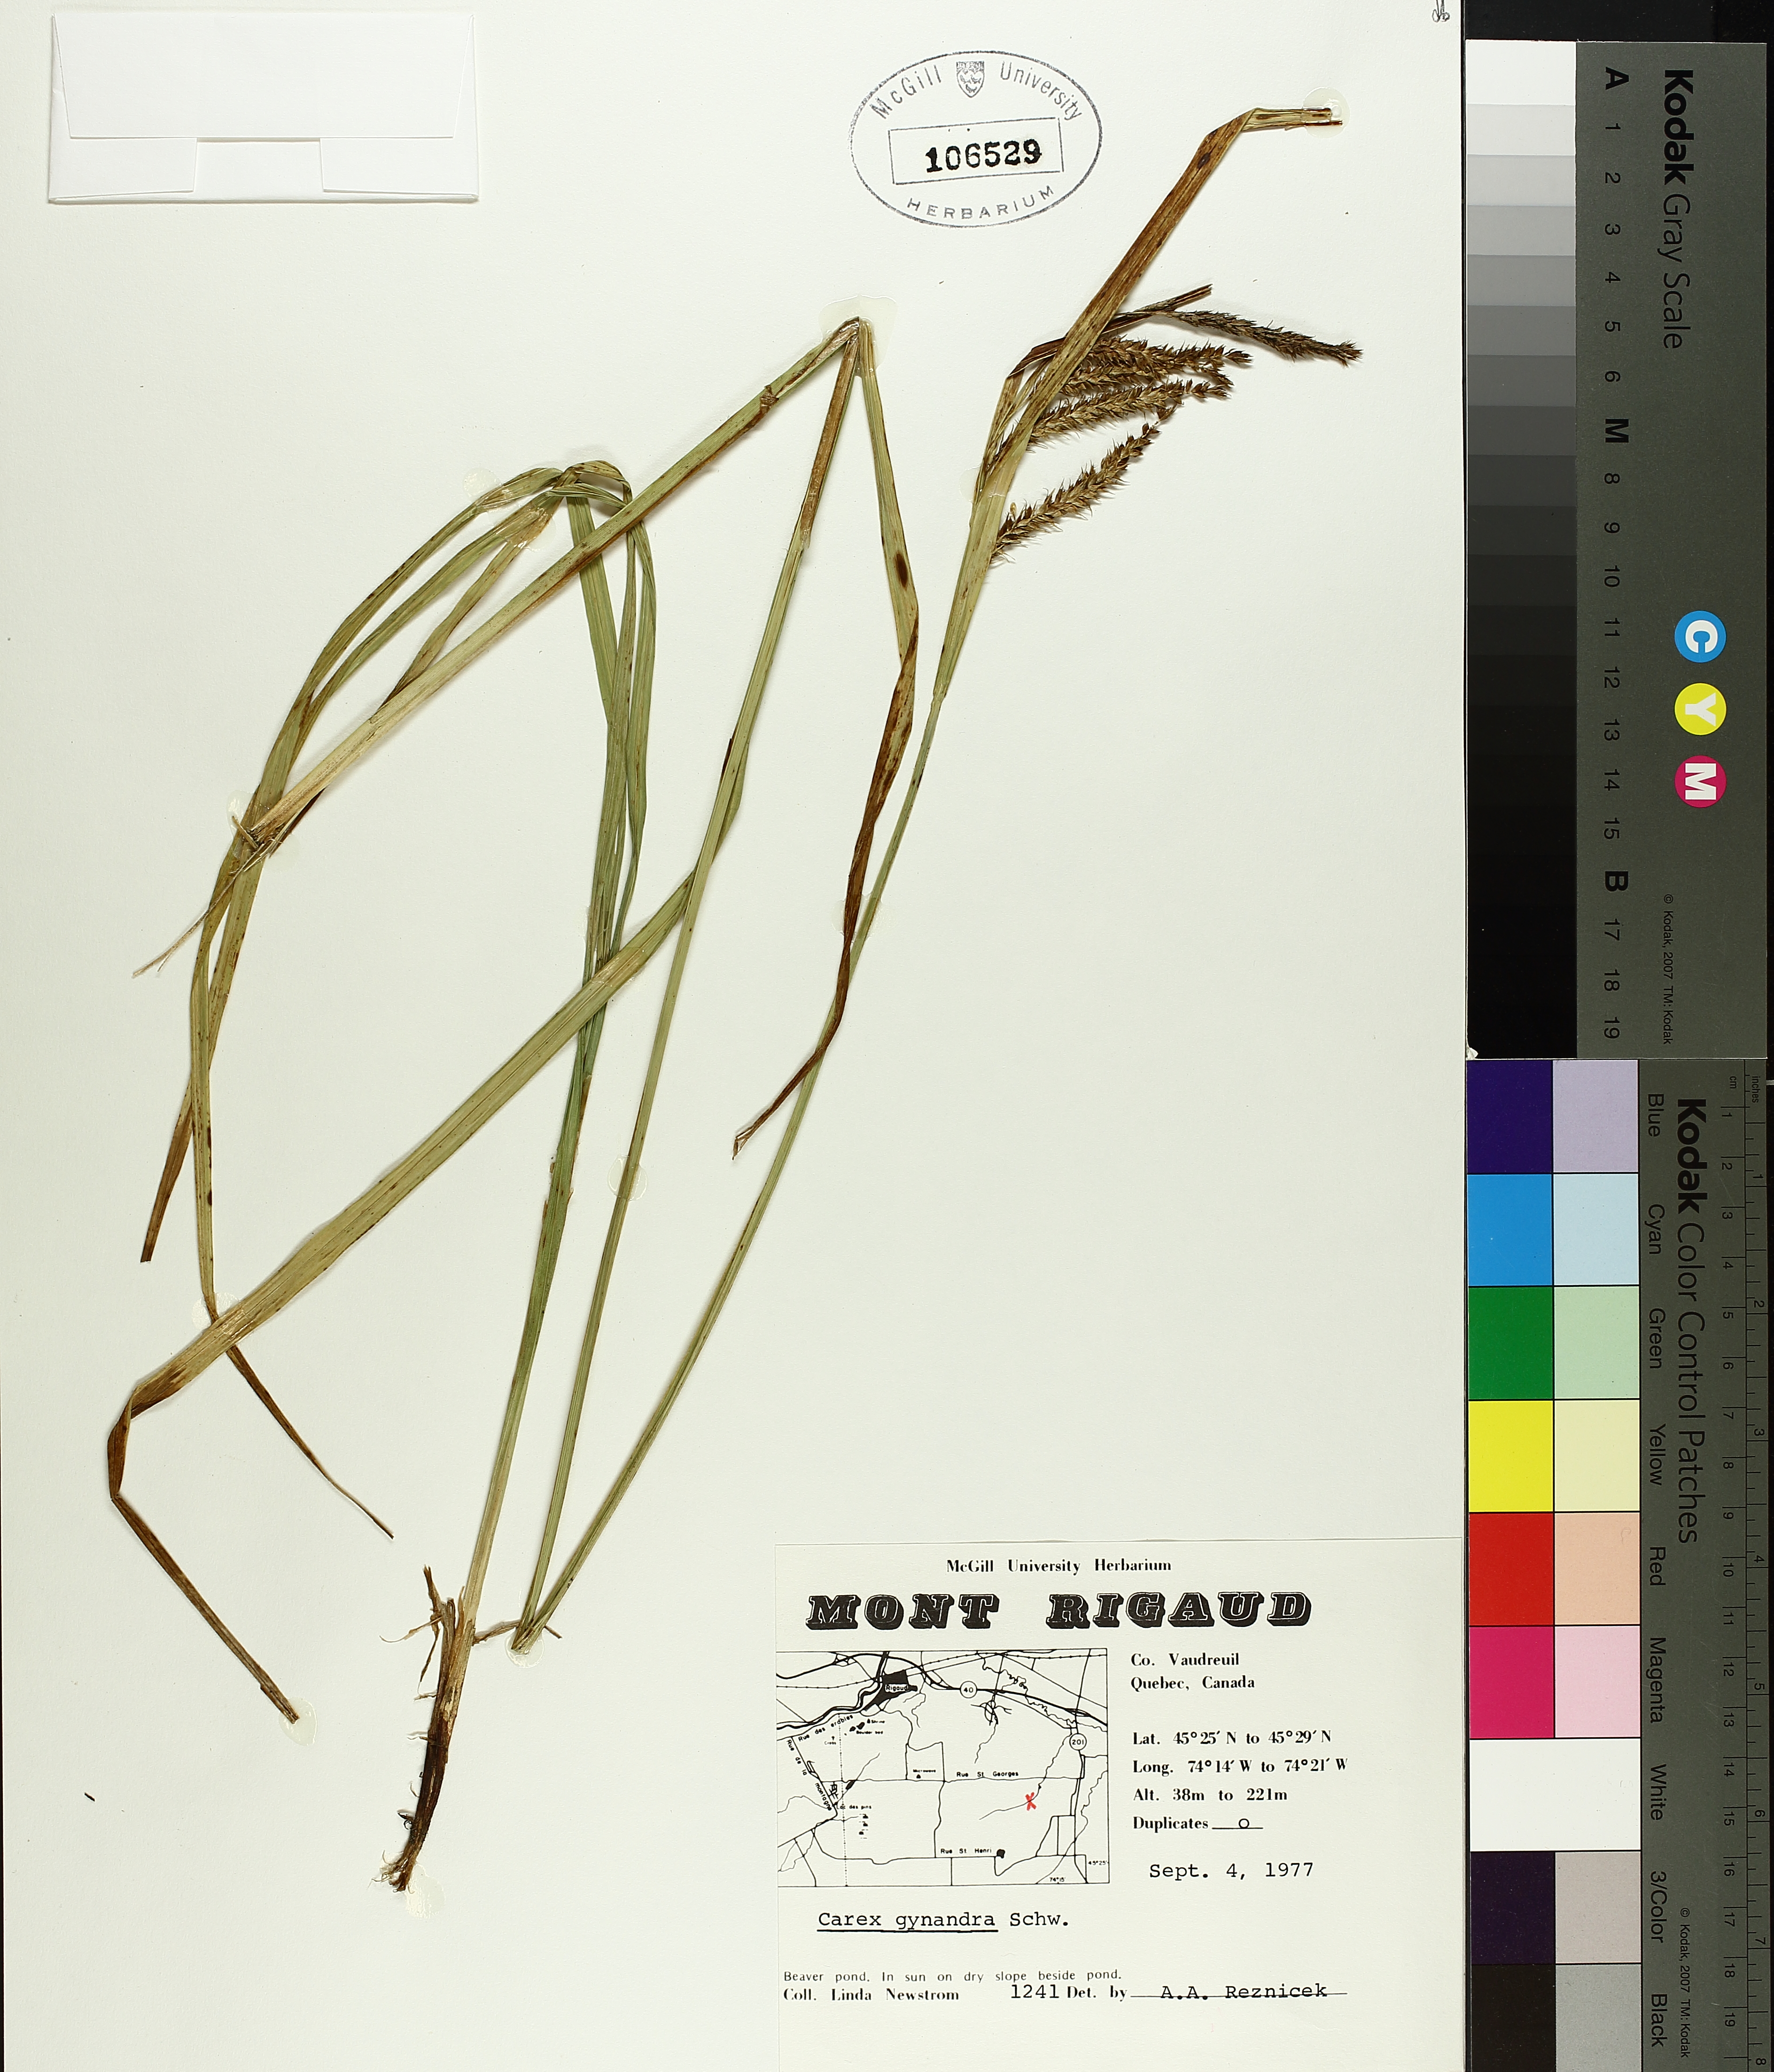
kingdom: Plantae
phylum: Tracheophyta
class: Liliopsida
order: Poales
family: Cyperaceae
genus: Carex
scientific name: Carex gynandra
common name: Nodding sedge
